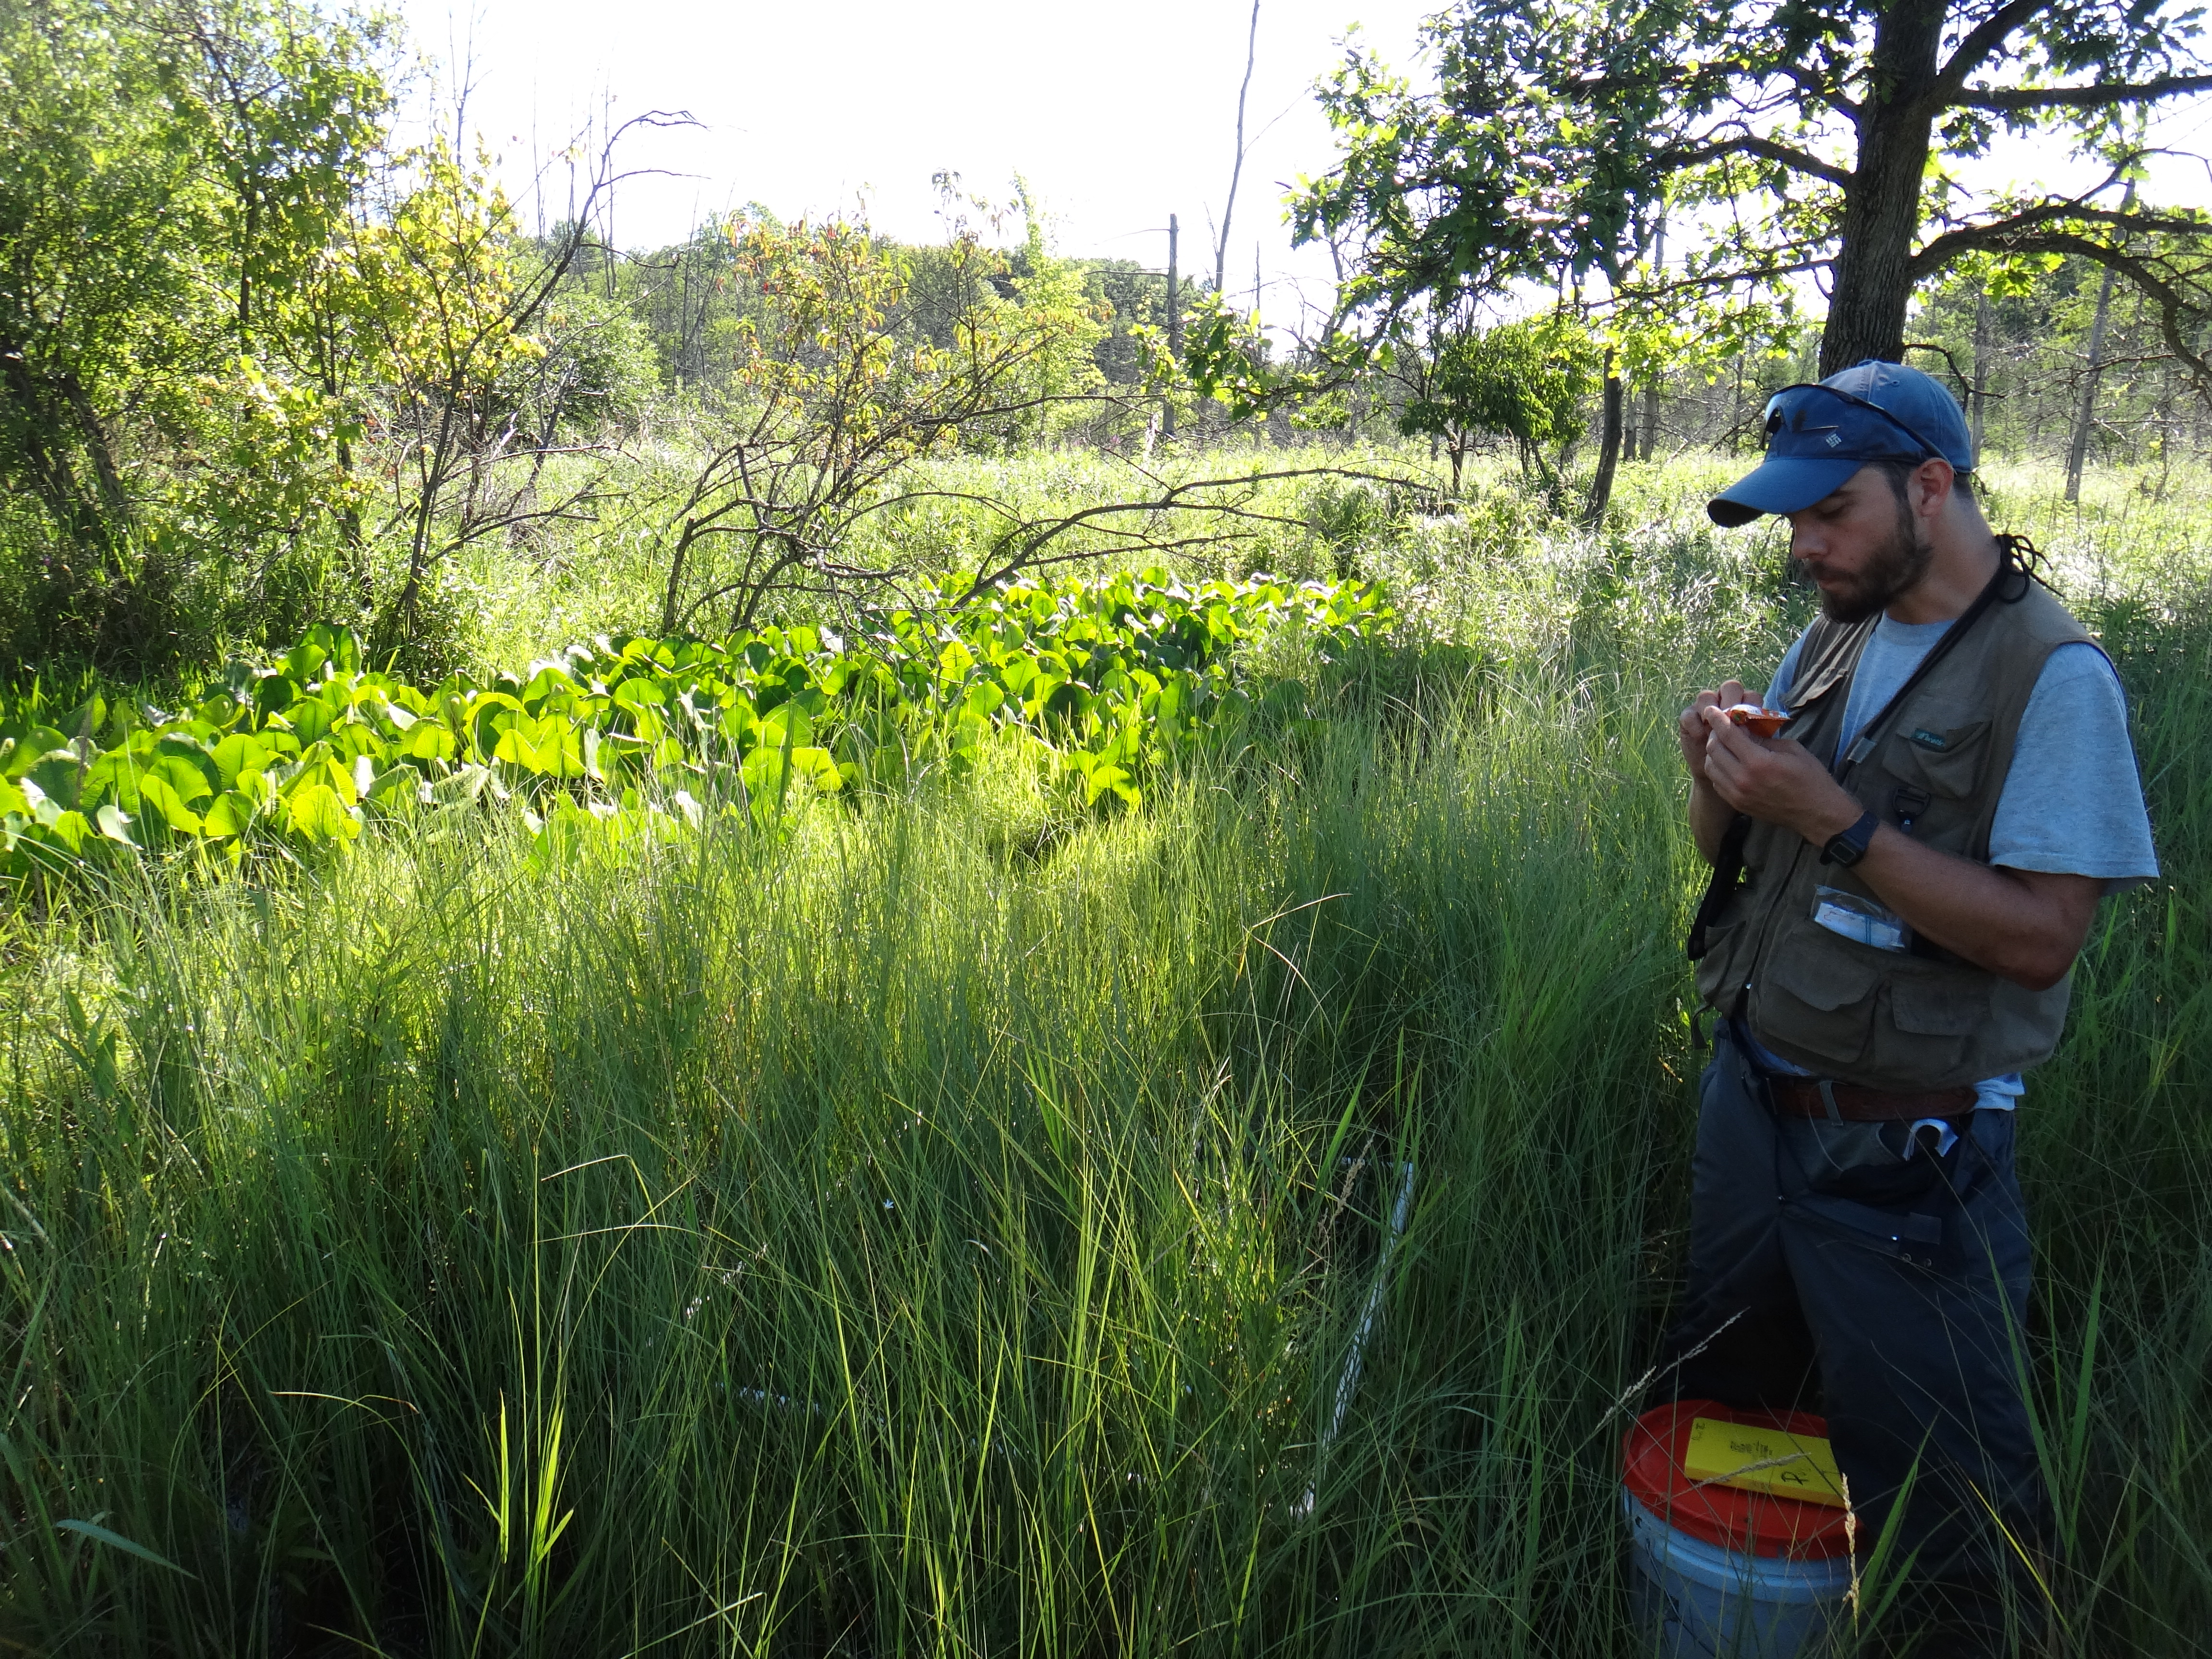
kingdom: Plantae
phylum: Tracheophyta
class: Liliopsida
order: Poales
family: Poaceae
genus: Muhlenbergia
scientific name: Muhlenbergia glomerata
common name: Bog muhly
